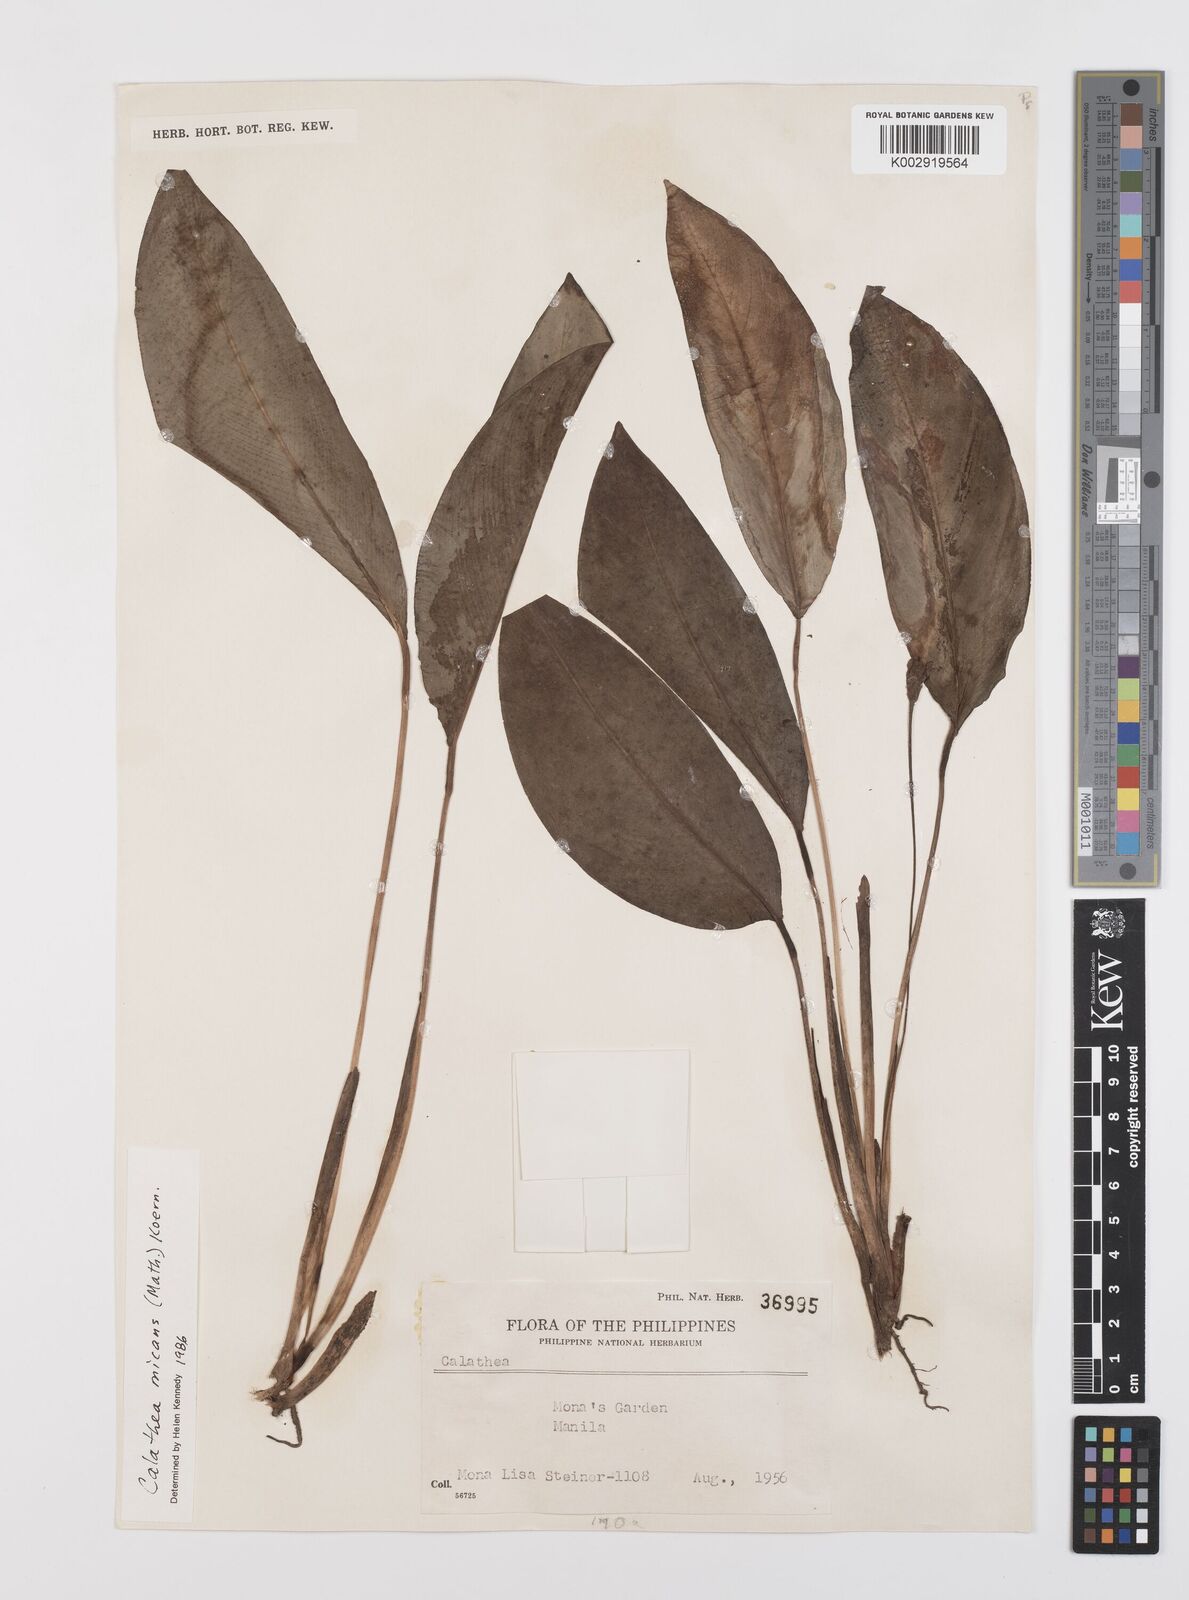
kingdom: Plantae
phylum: Tracheophyta
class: Liliopsida
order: Zingiberales
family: Marantaceae
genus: Goeppertia
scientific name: Goeppertia micans
